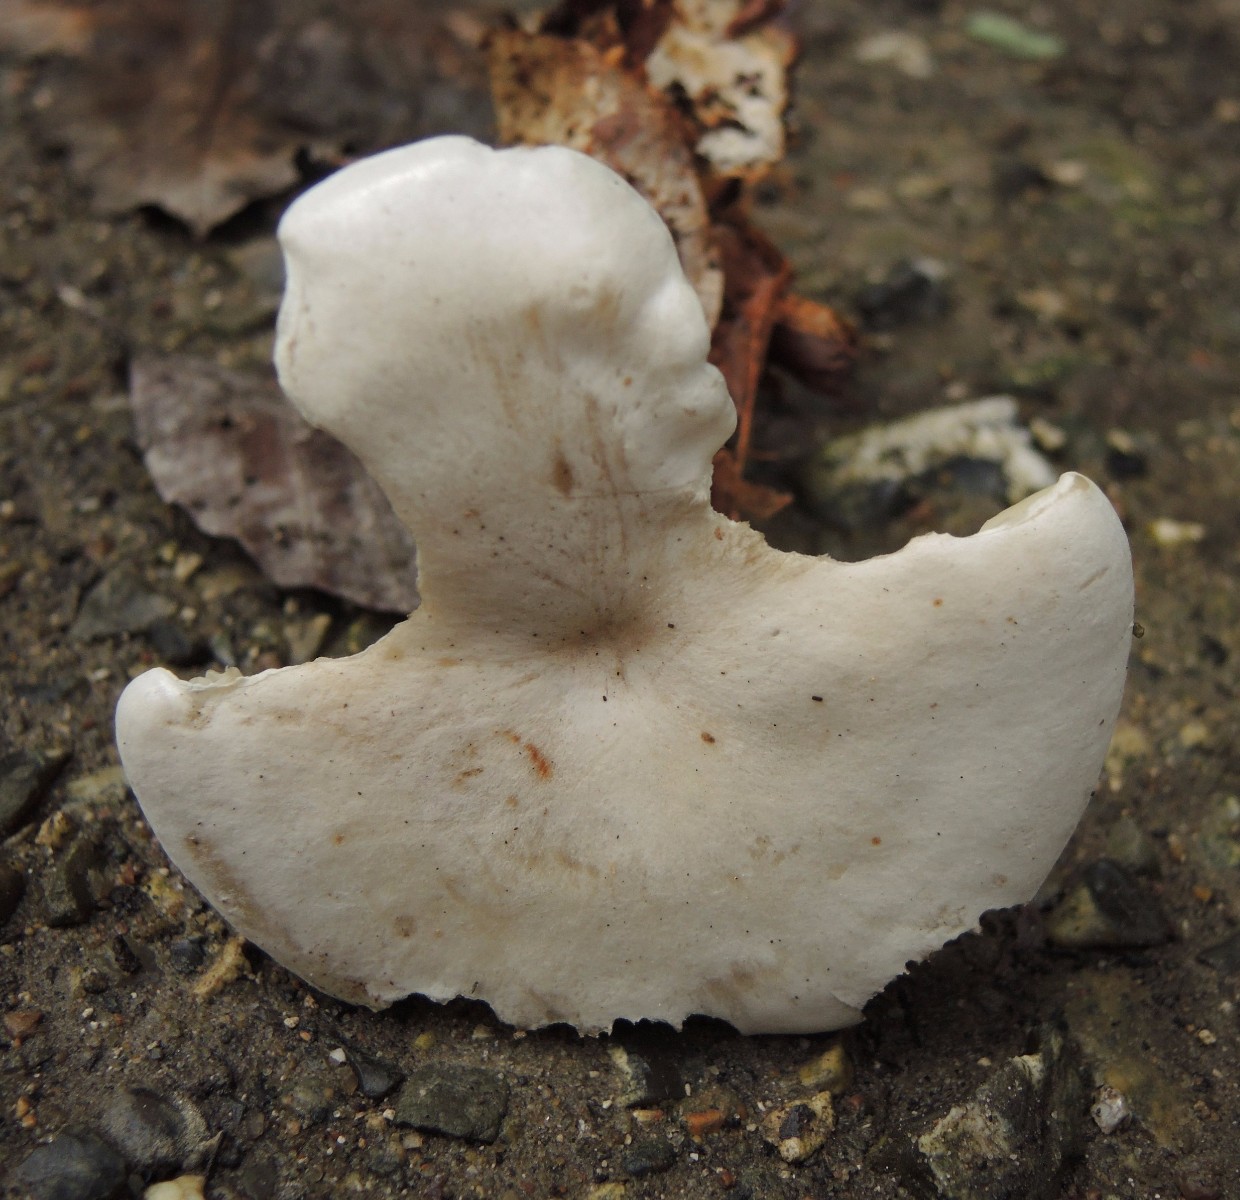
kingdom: Fungi
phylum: Basidiomycota
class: Agaricomycetes
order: Agaricales
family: Tricholomataceae
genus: Clitocybe
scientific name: Clitocybe phyllophila
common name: løv-tragthat
